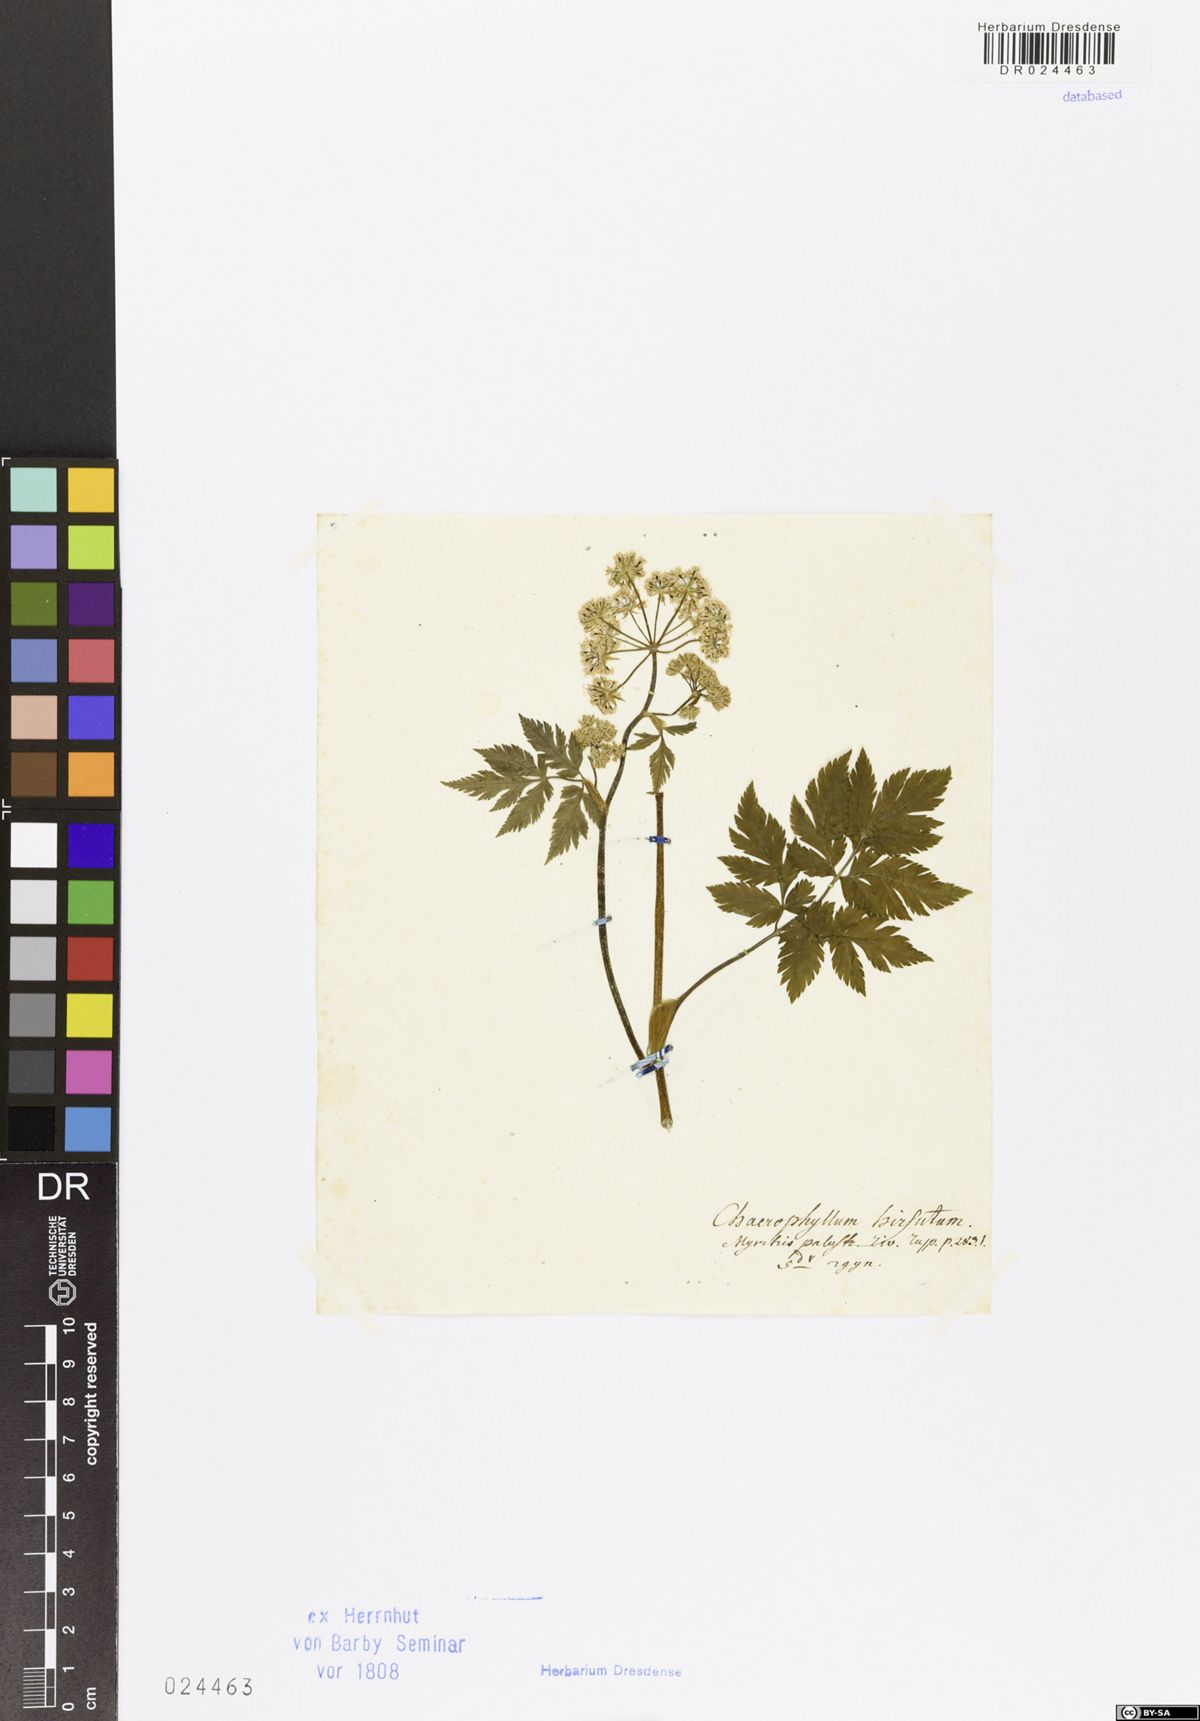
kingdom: Plantae
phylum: Tracheophyta
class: Magnoliopsida
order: Apiales
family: Apiaceae
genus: Chaerophyllum
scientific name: Chaerophyllum hirsutum
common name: Hairy chervil
